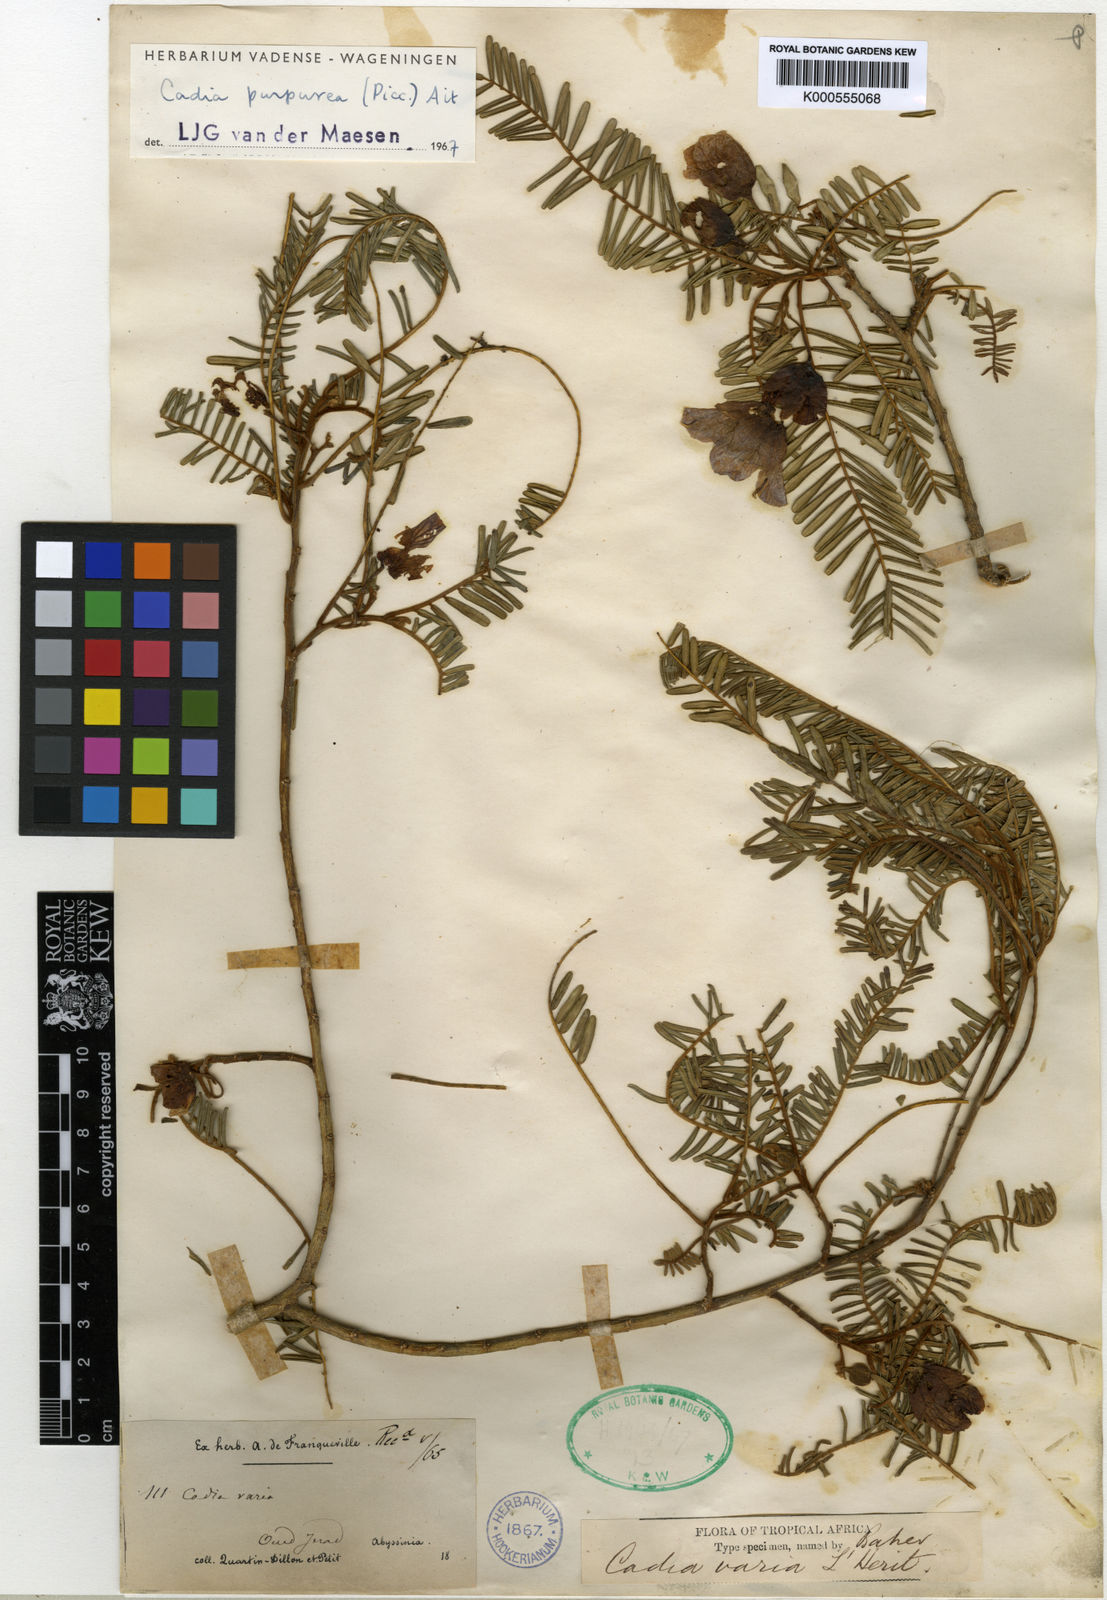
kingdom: Plantae
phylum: Tracheophyta
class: Magnoliopsida
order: Fabales
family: Fabaceae
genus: Cadia
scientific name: Cadia purpurea
